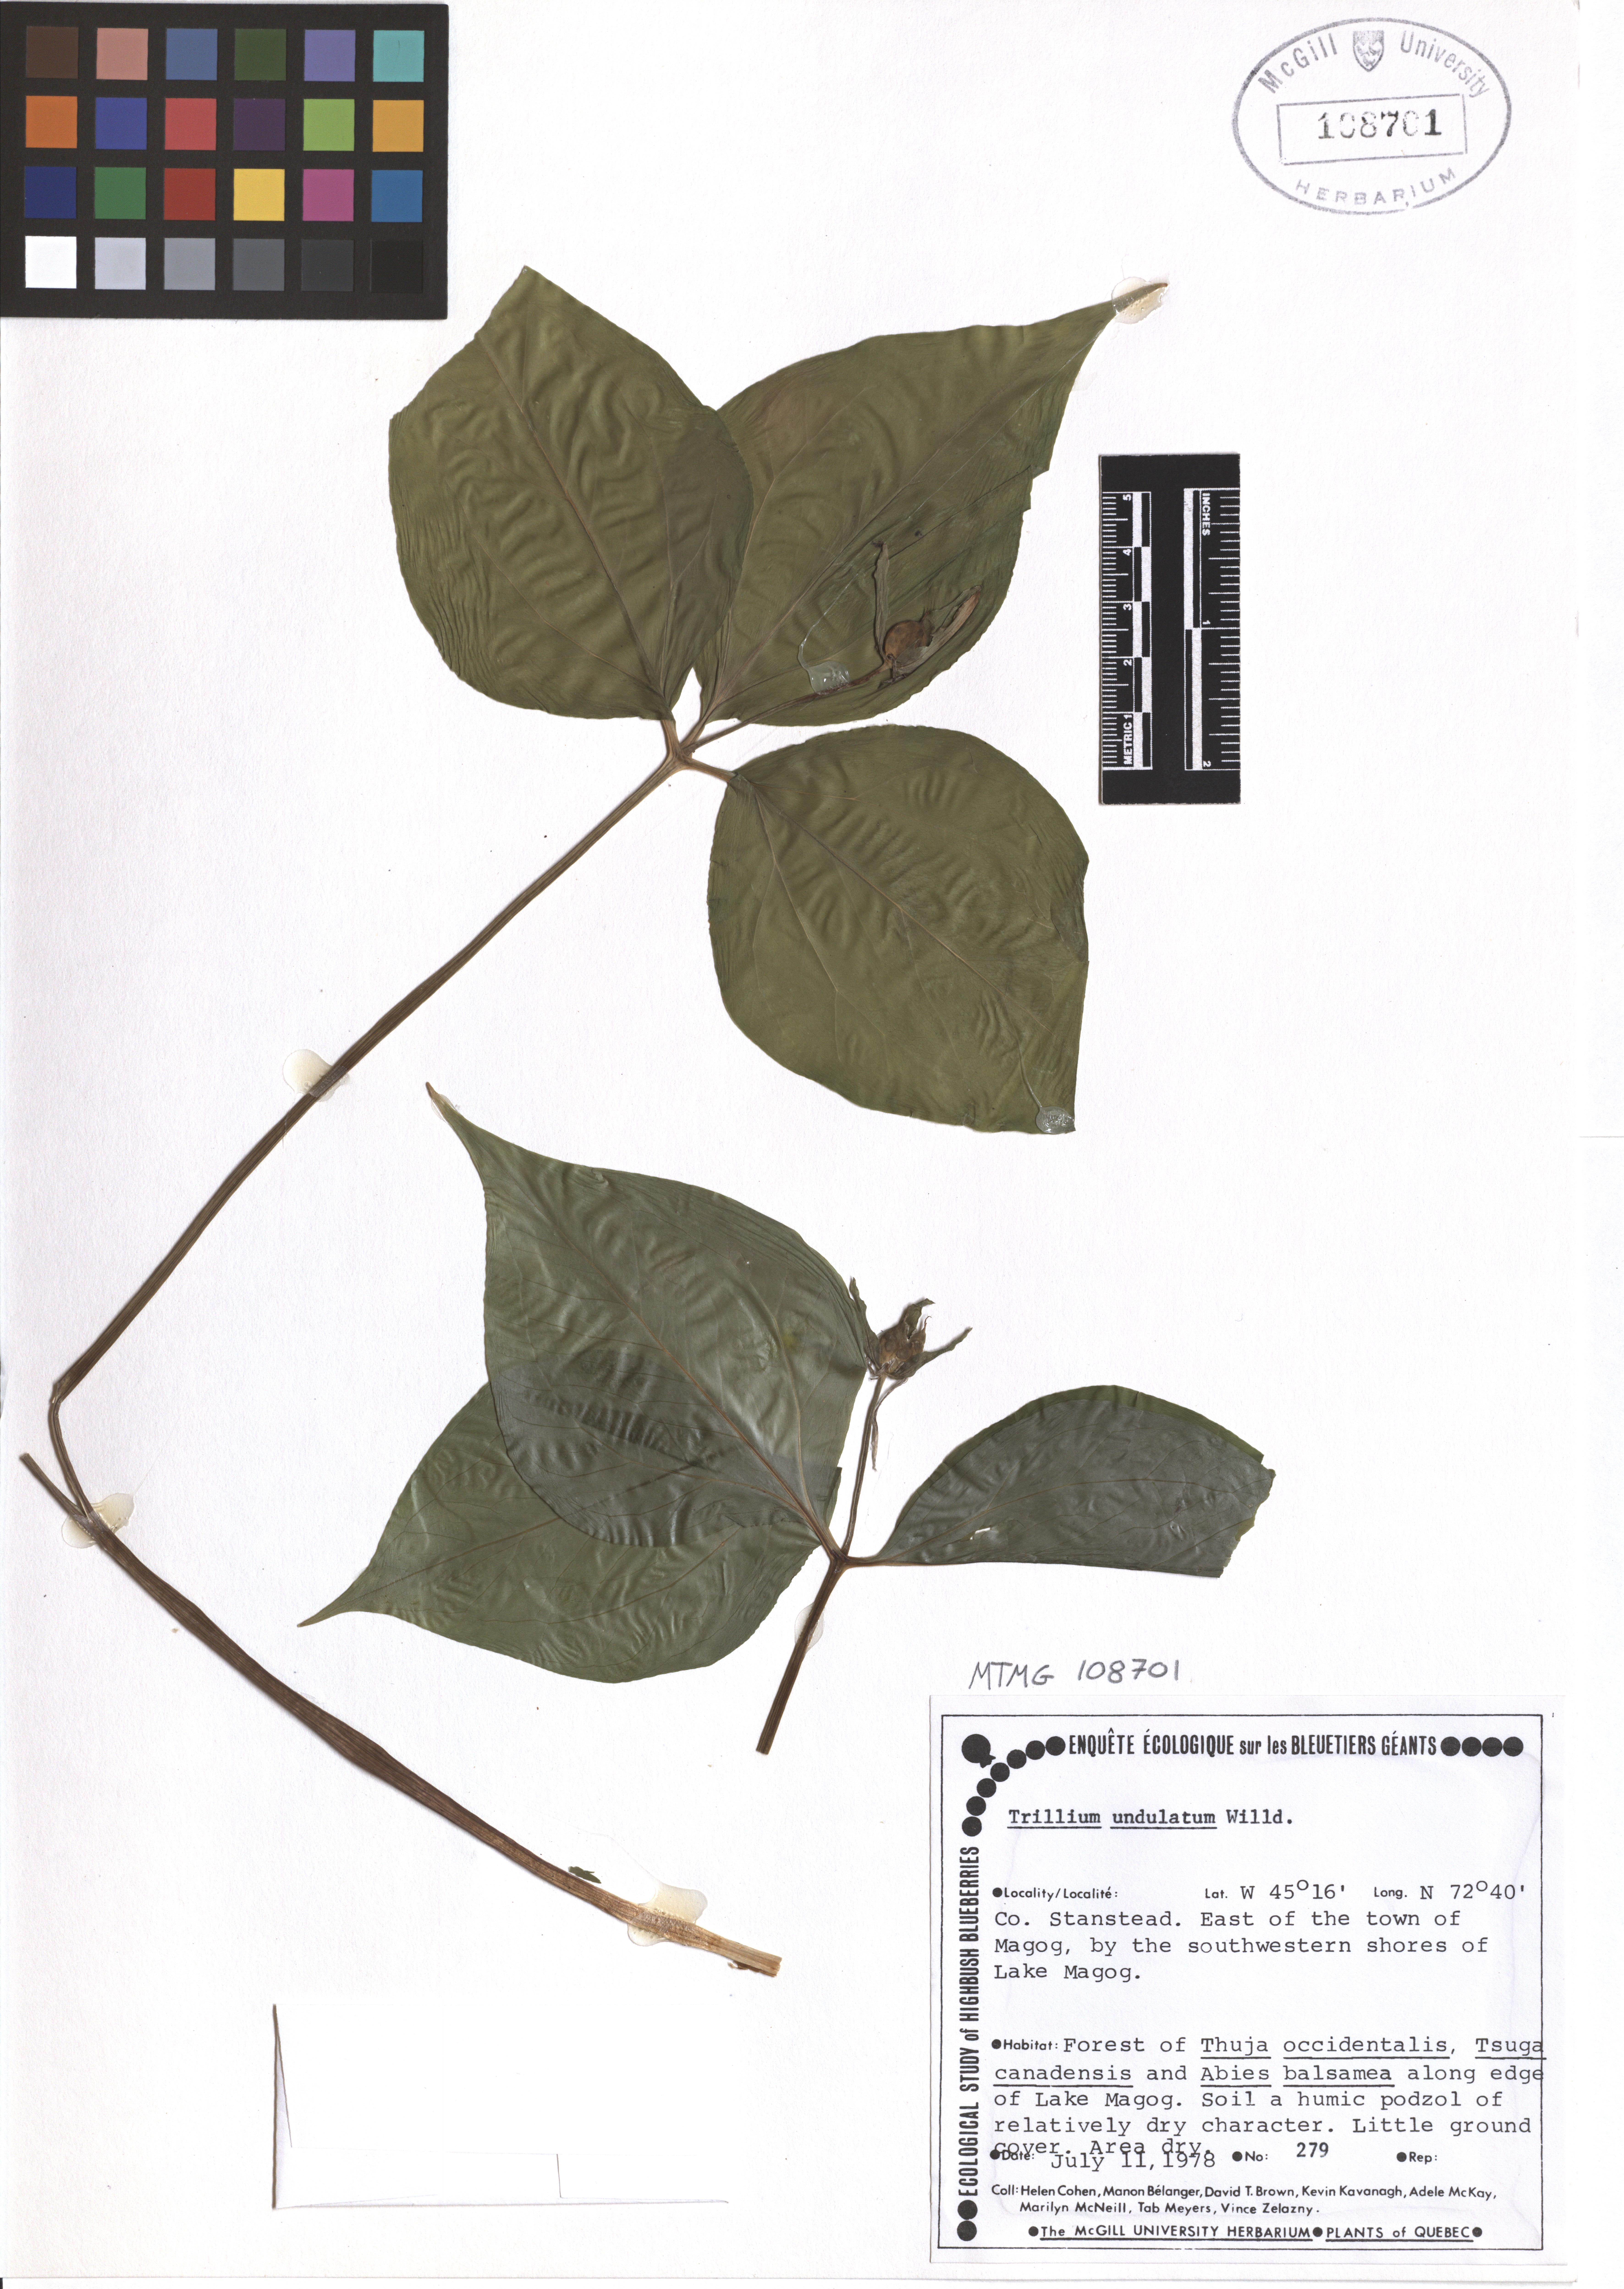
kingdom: Plantae
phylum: Tracheophyta
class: Liliopsida
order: Liliales
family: Melanthiaceae
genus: Trillium
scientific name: Trillium undulatum
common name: Paint trillium
